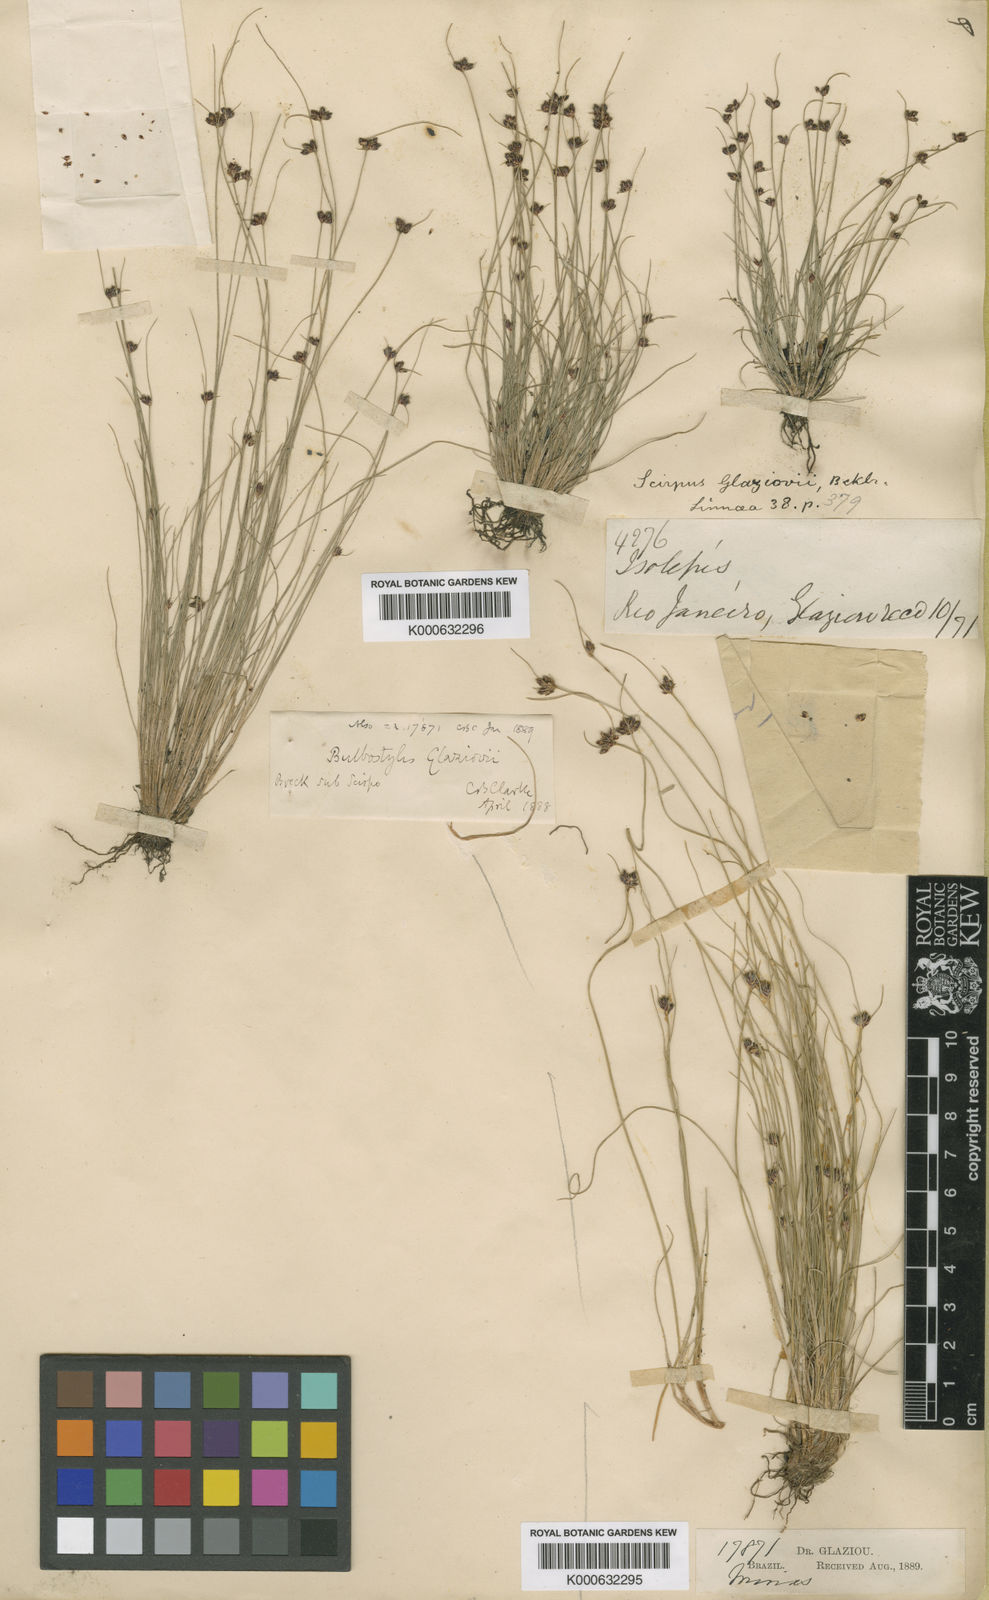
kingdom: Plantae
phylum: Tracheophyta
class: Liliopsida
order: Poales
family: Cyperaceae
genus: Bulbostylis
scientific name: Bulbostylis juncoides
